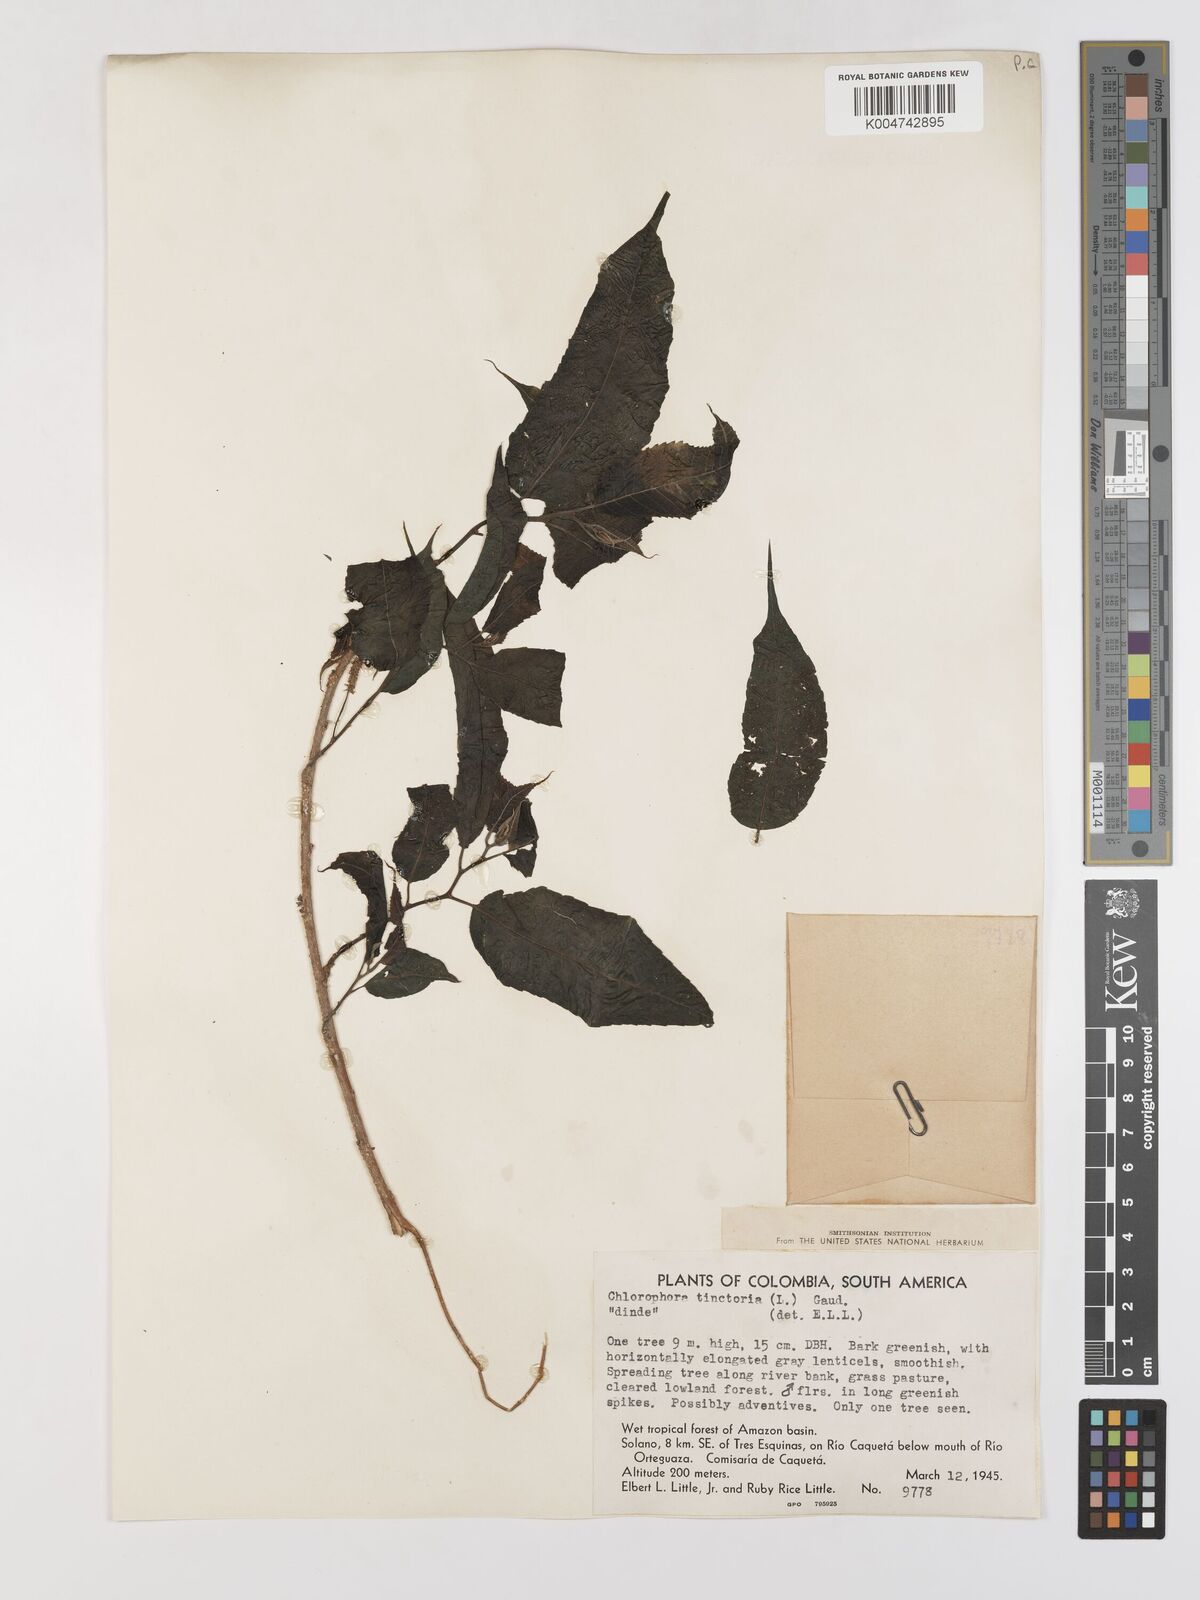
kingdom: Plantae
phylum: Tracheophyta
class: Magnoliopsida
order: Rosales
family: Moraceae
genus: Maclura
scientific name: Maclura tinctoria
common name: Old fustic
